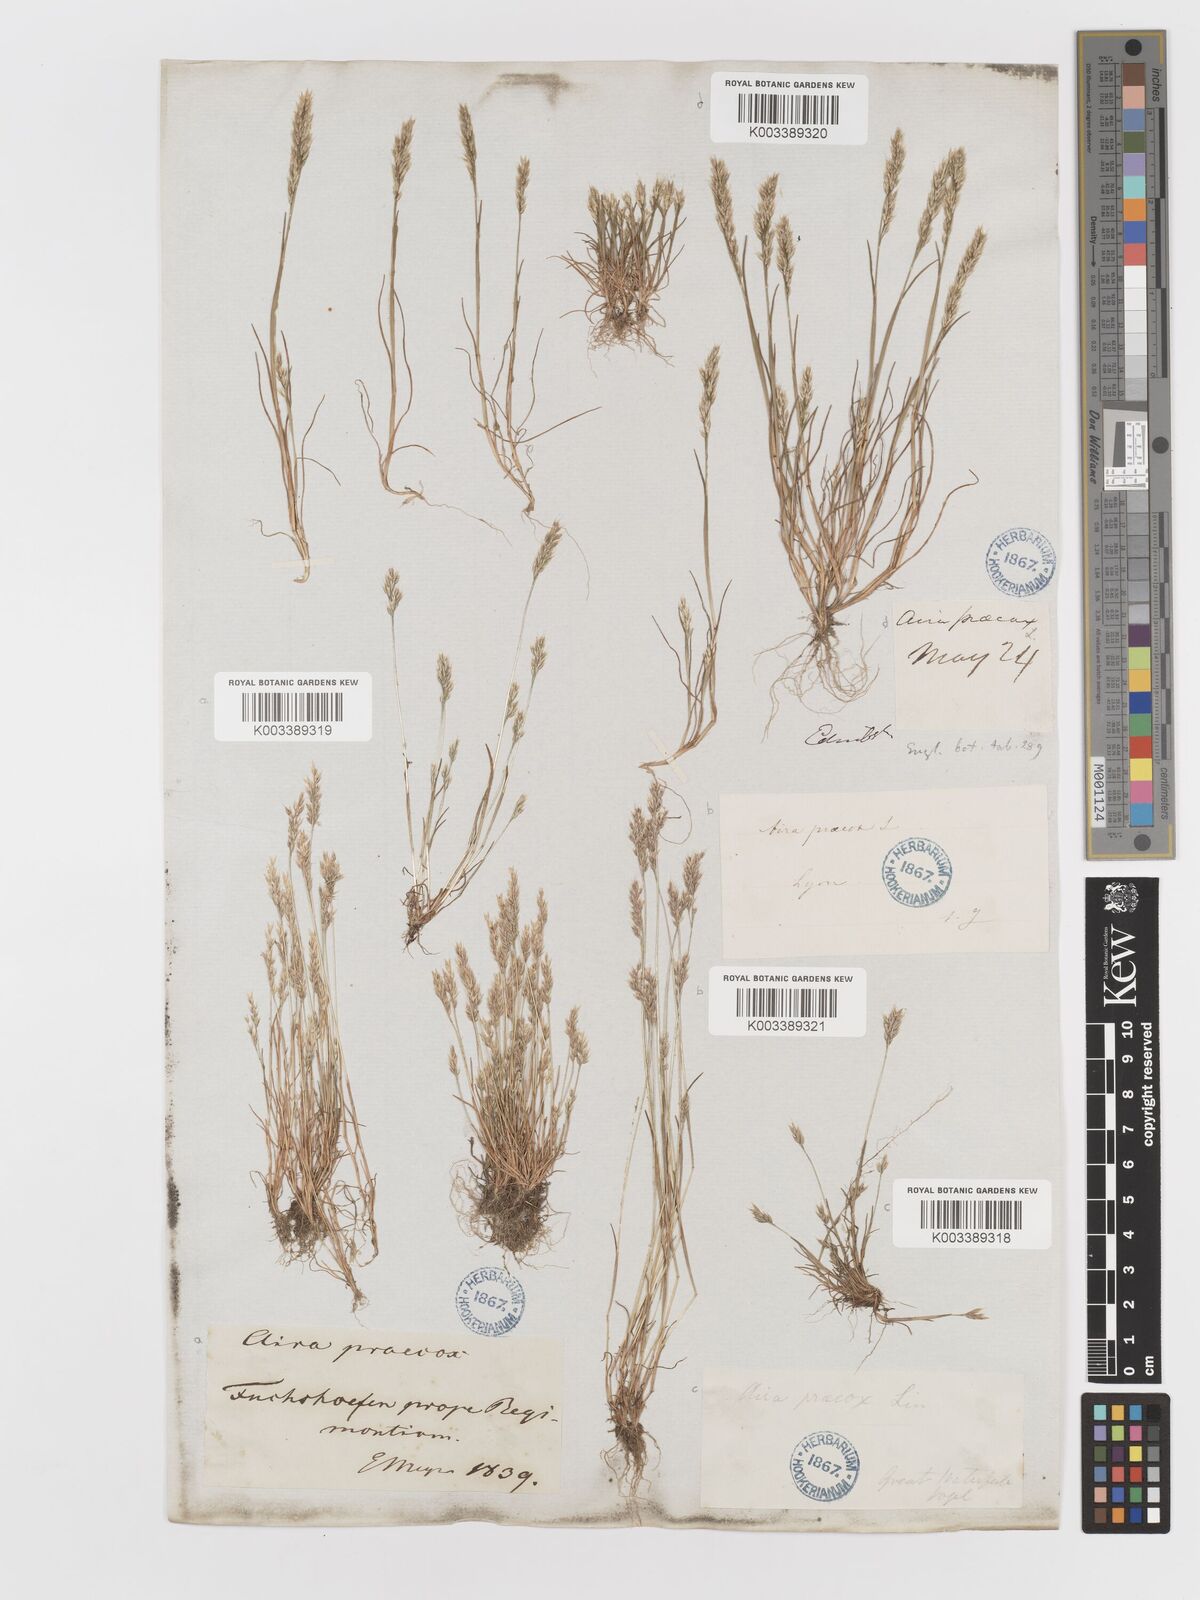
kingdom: Plantae
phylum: Tracheophyta
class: Liliopsida
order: Poales
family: Poaceae
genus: Aira
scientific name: Aira praecox
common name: Early hair-grass
